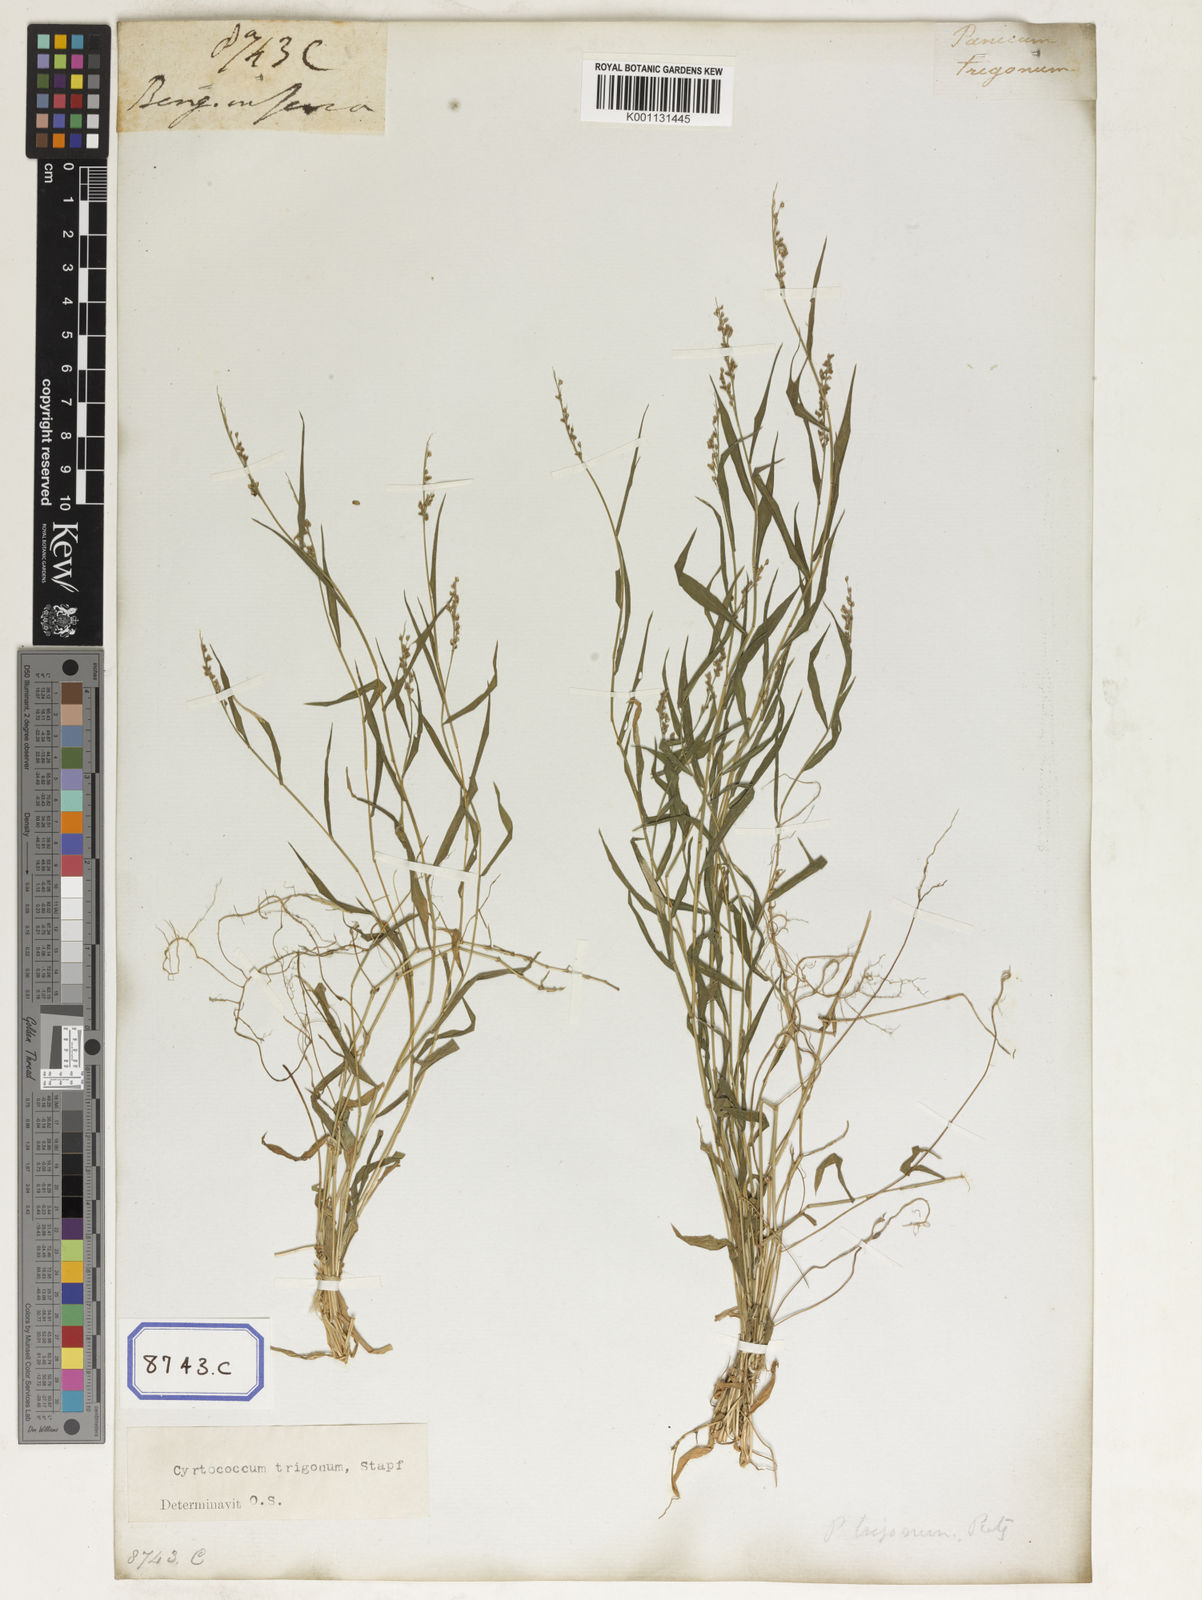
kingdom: Plantae
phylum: Tracheophyta
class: Liliopsida
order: Poales
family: Poaceae
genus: Panicum
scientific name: Panicum
